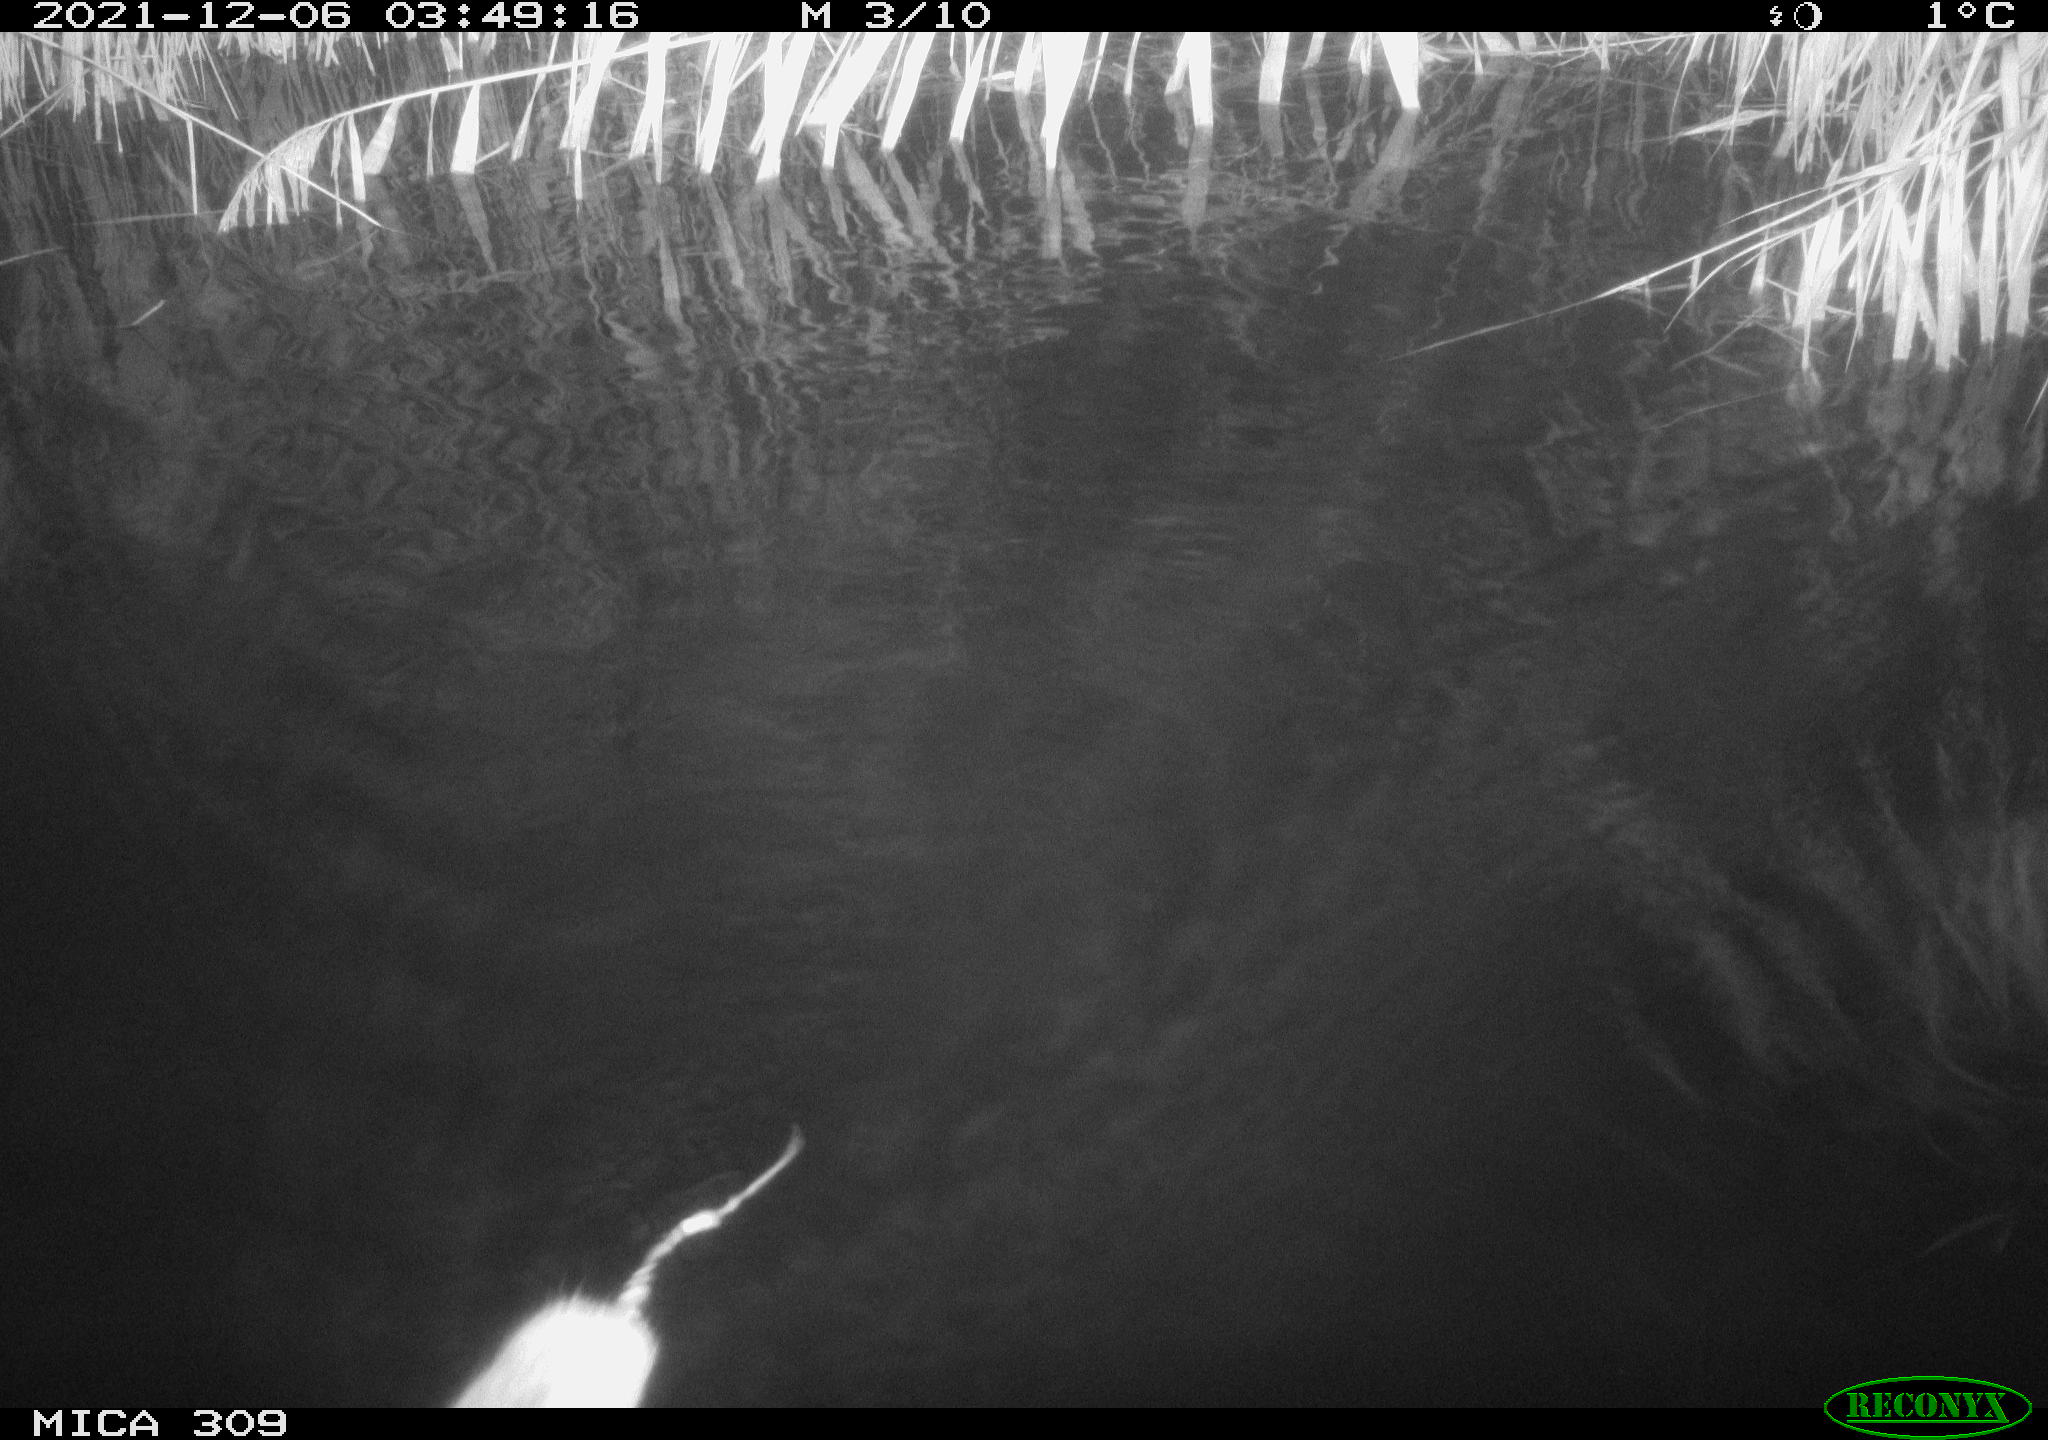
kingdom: Animalia
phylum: Chordata
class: Mammalia
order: Rodentia
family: Cricetidae
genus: Ondatra
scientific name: Ondatra zibethicus
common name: Muskrat
